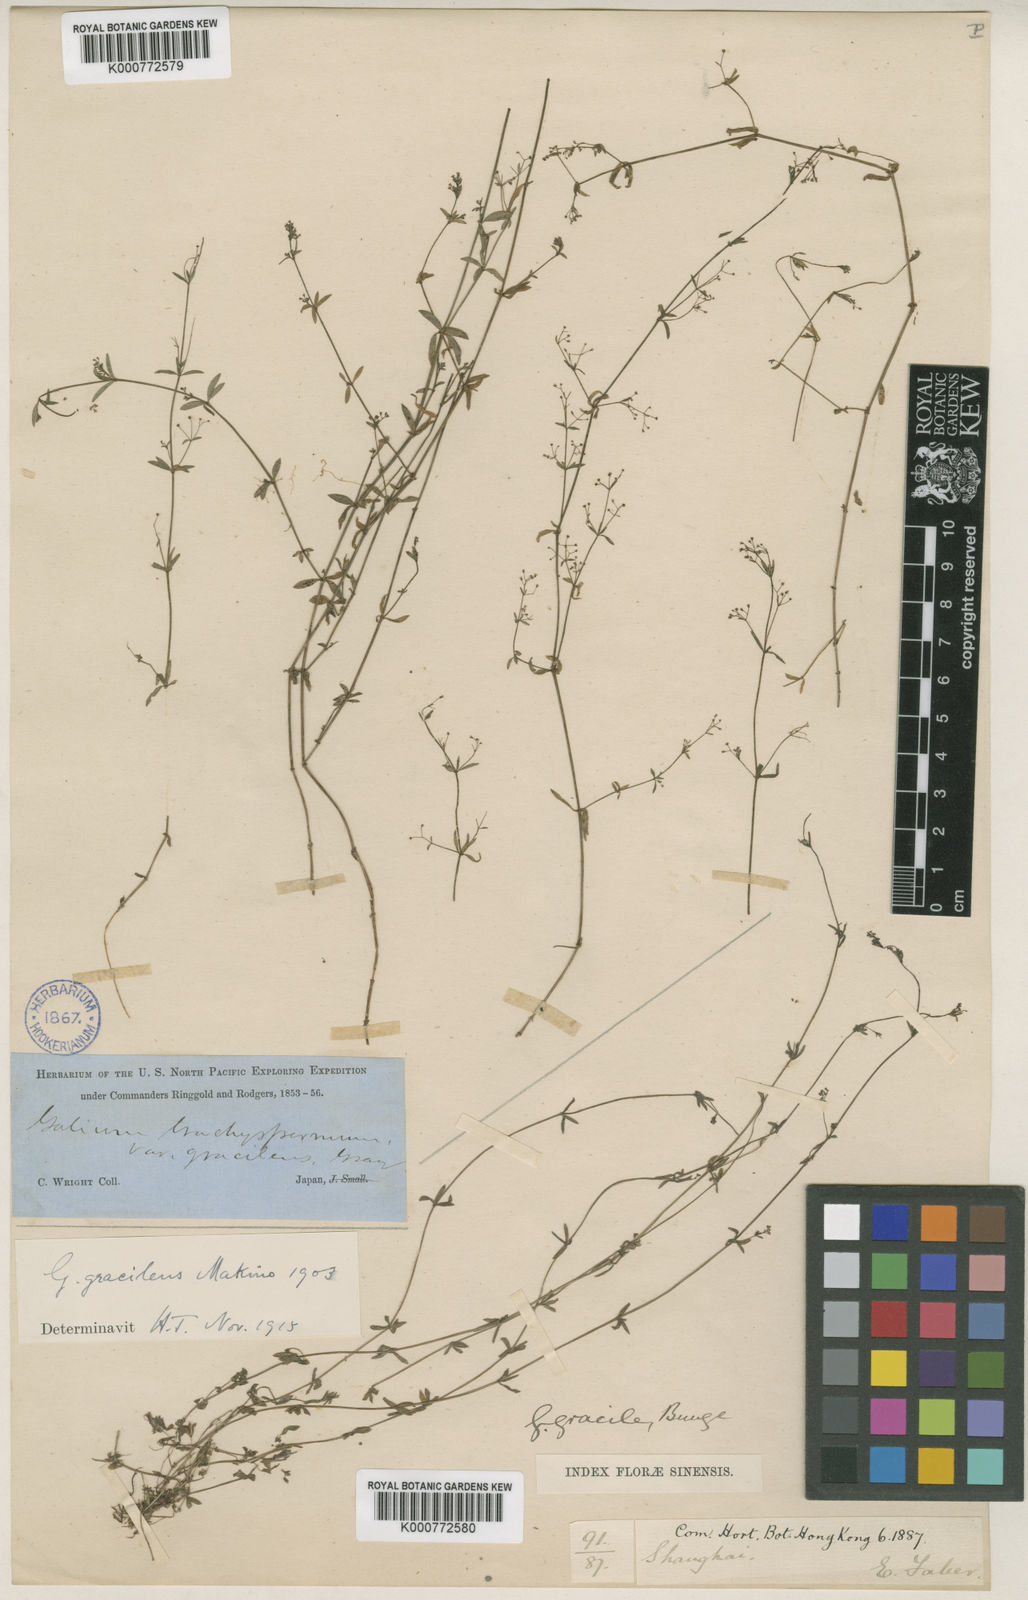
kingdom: Plantae
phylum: Tracheophyta
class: Magnoliopsida
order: Gentianales
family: Rubiaceae
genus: Galium
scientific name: Galium bungei
